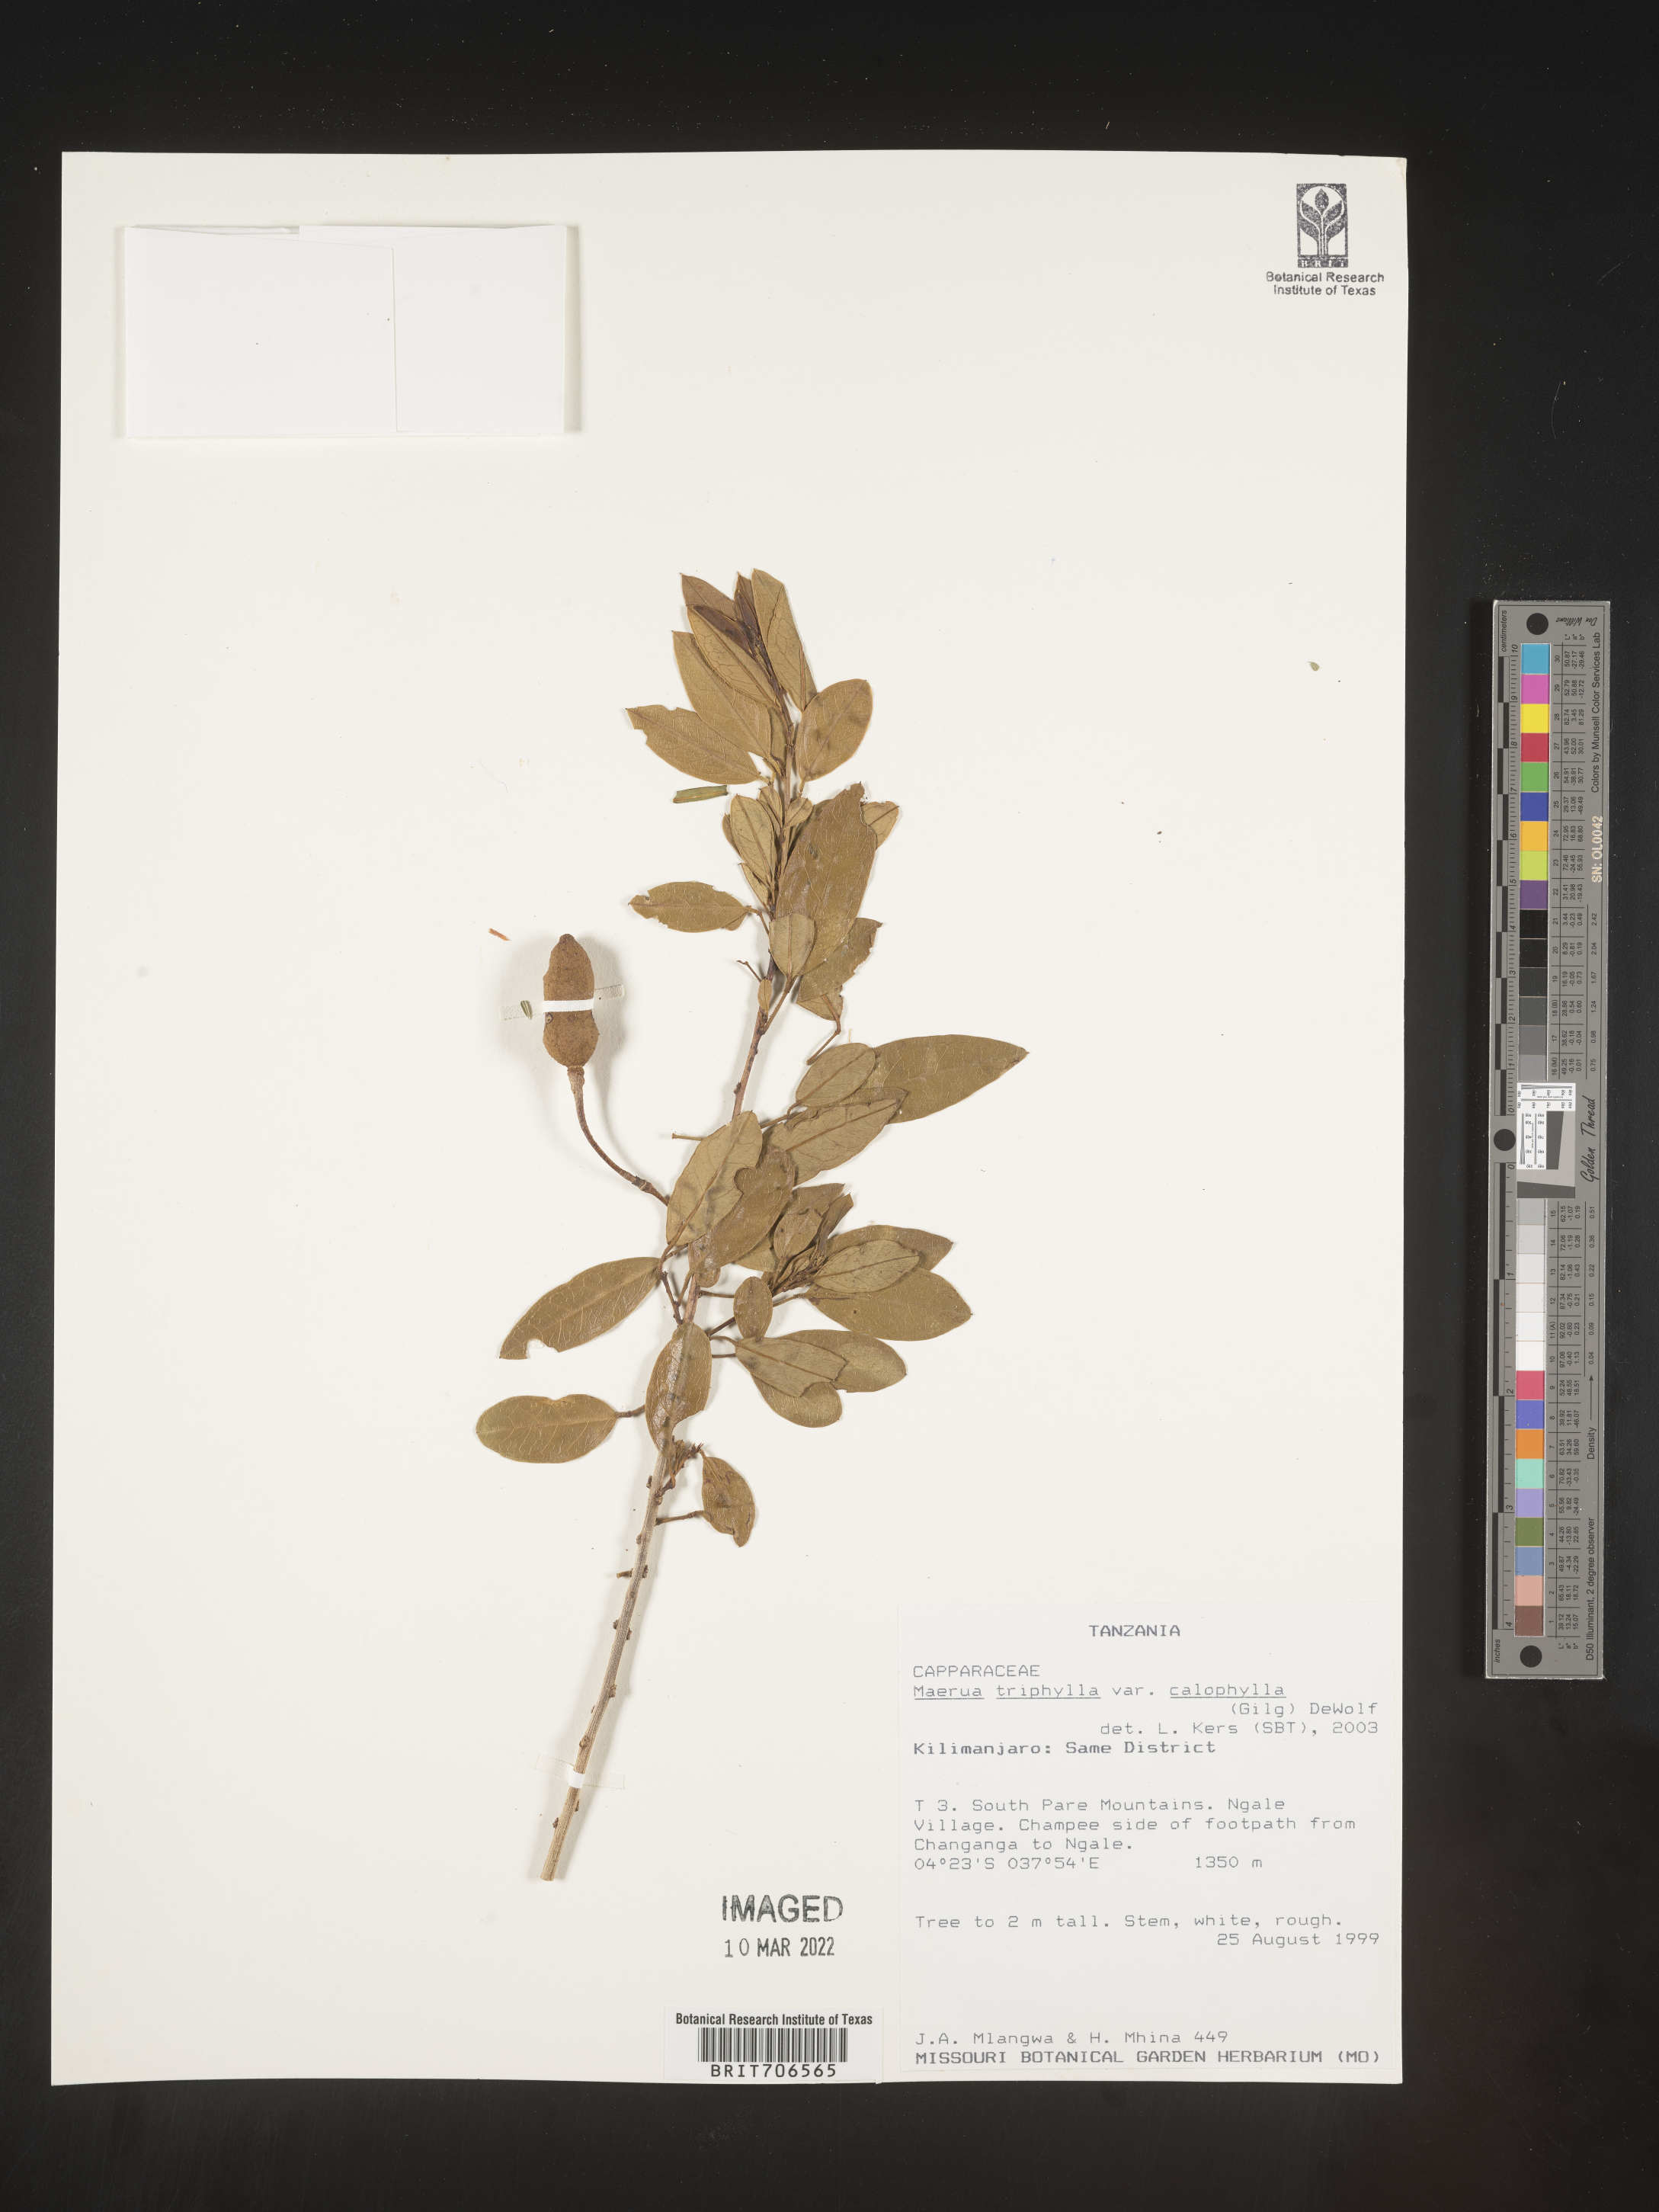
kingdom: Plantae
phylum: Tracheophyta
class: Magnoliopsida
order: Brassicales
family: Capparaceae
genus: Maerua
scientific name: Maerua
